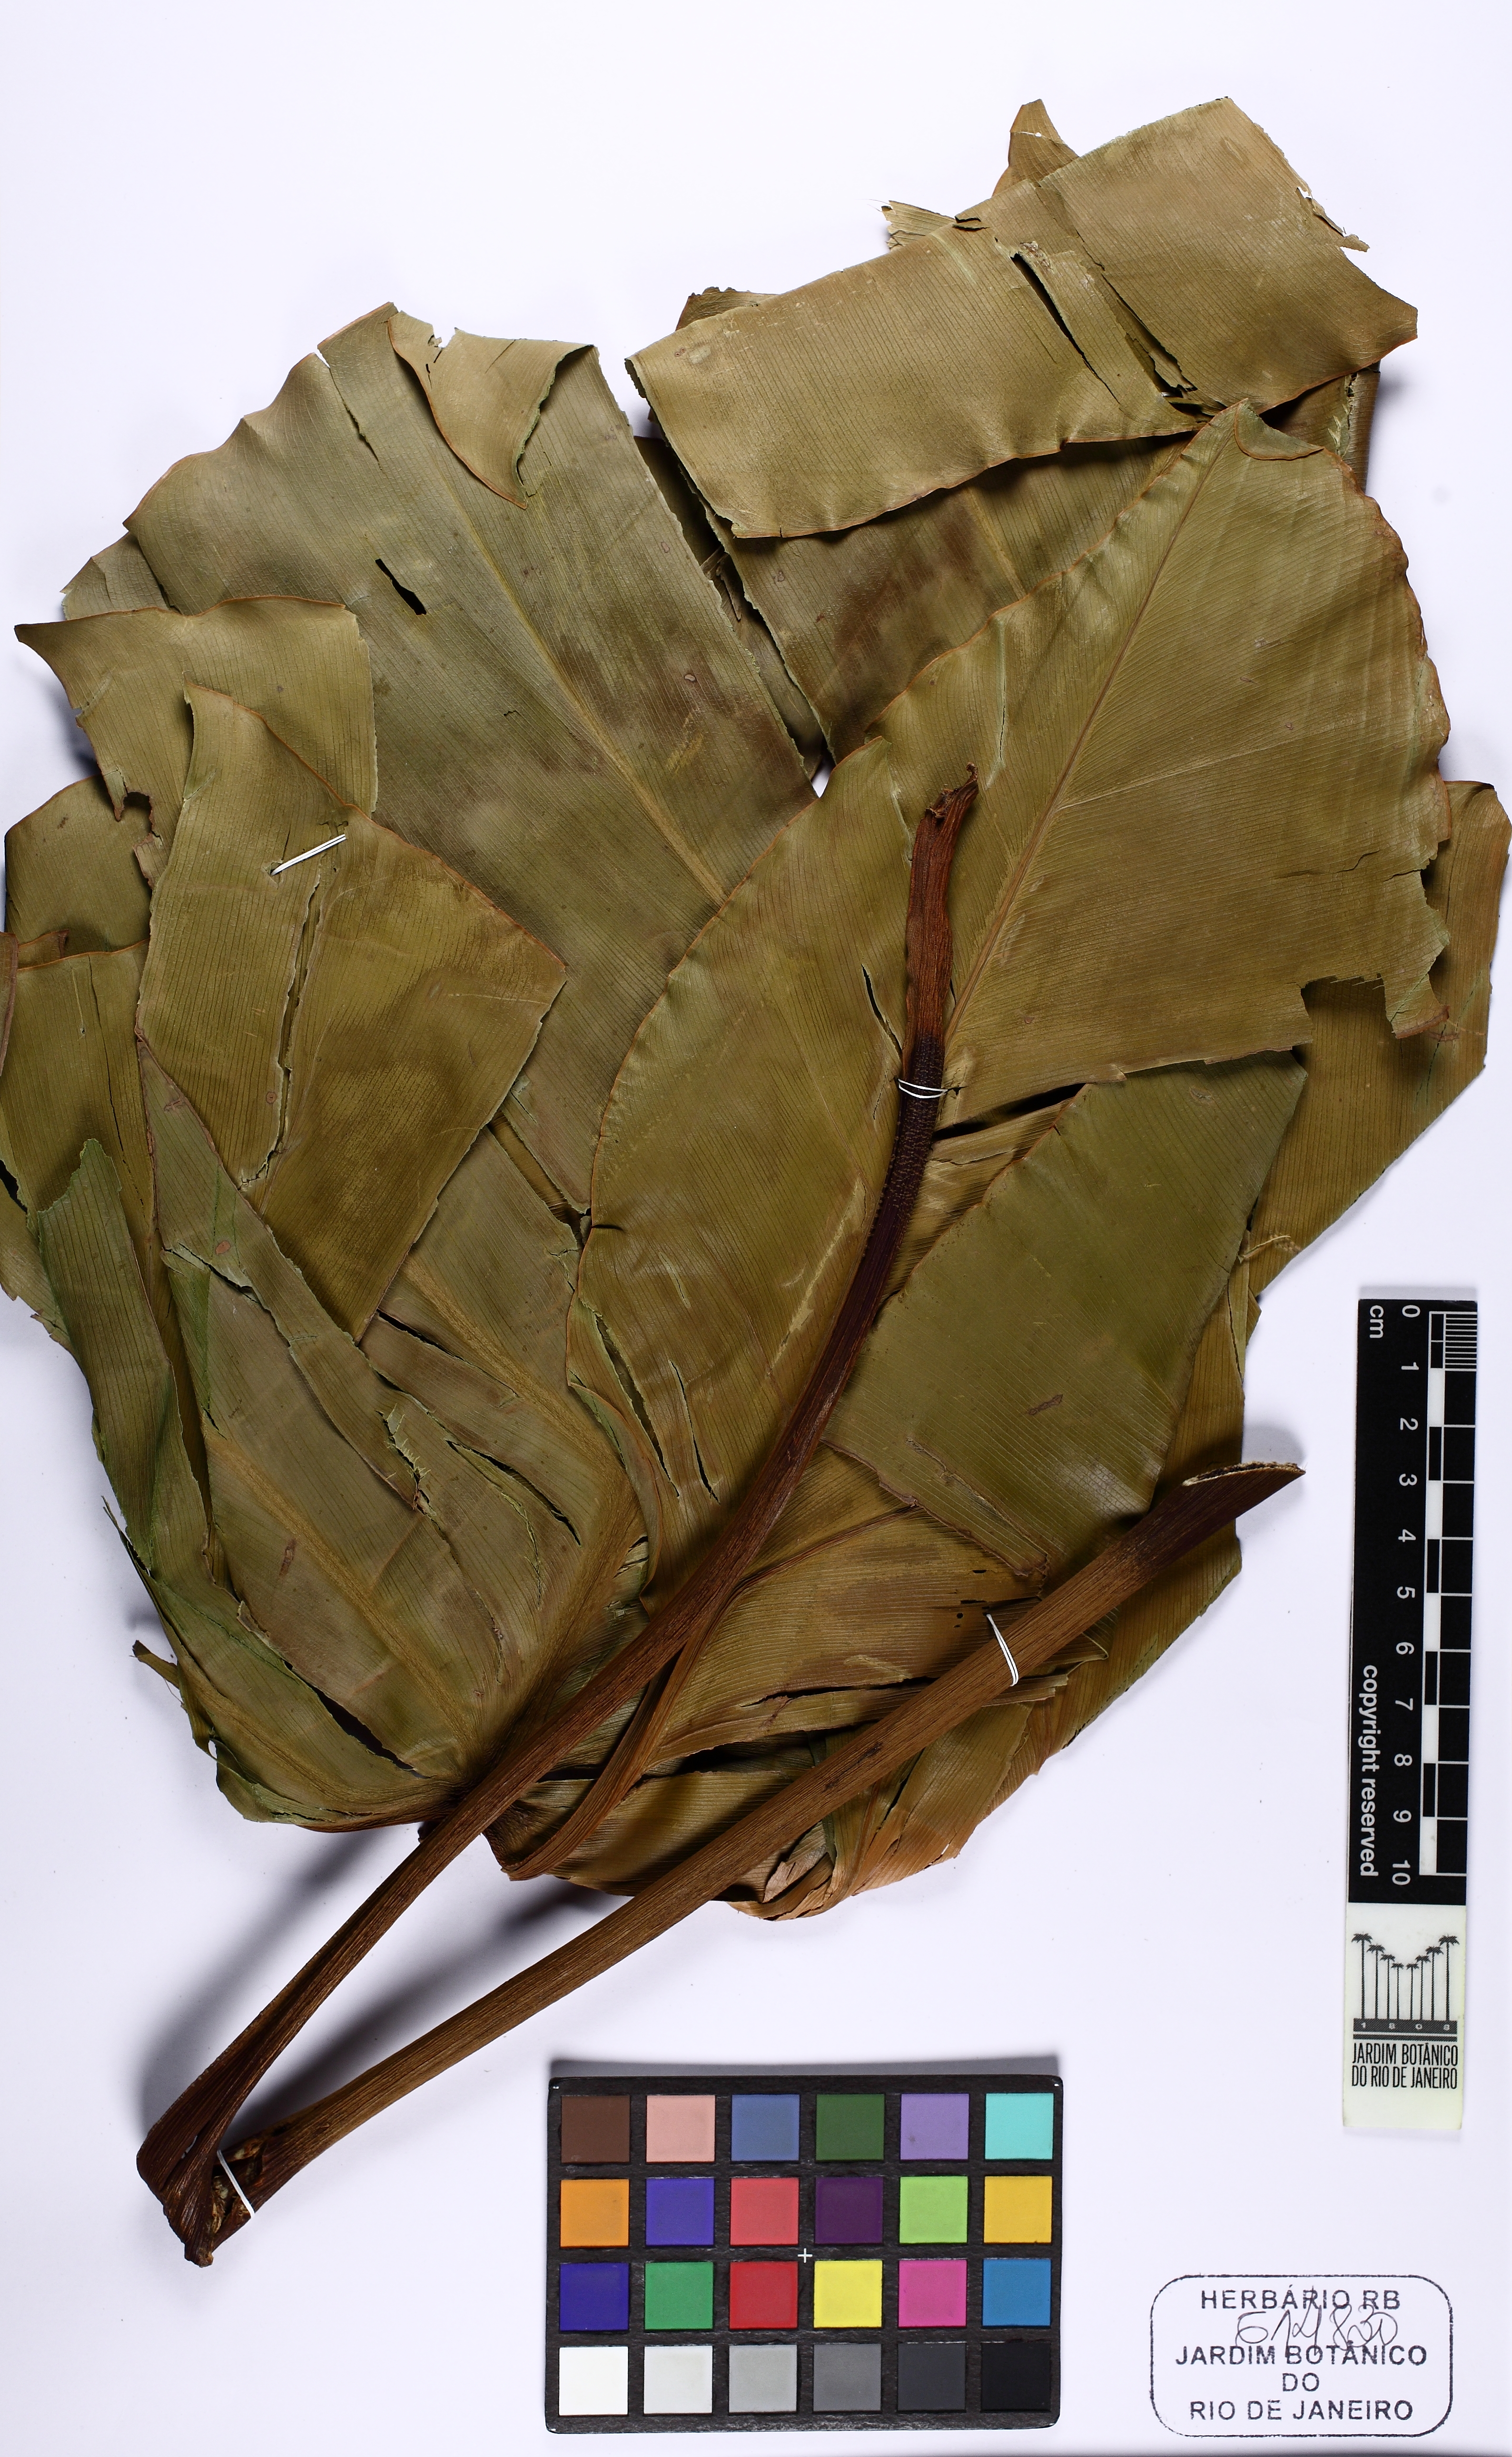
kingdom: Plantae
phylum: Tracheophyta
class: Liliopsida
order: Alismatales
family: Araceae
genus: Thaumatophyllum
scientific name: Thaumatophyllum solimoesense
